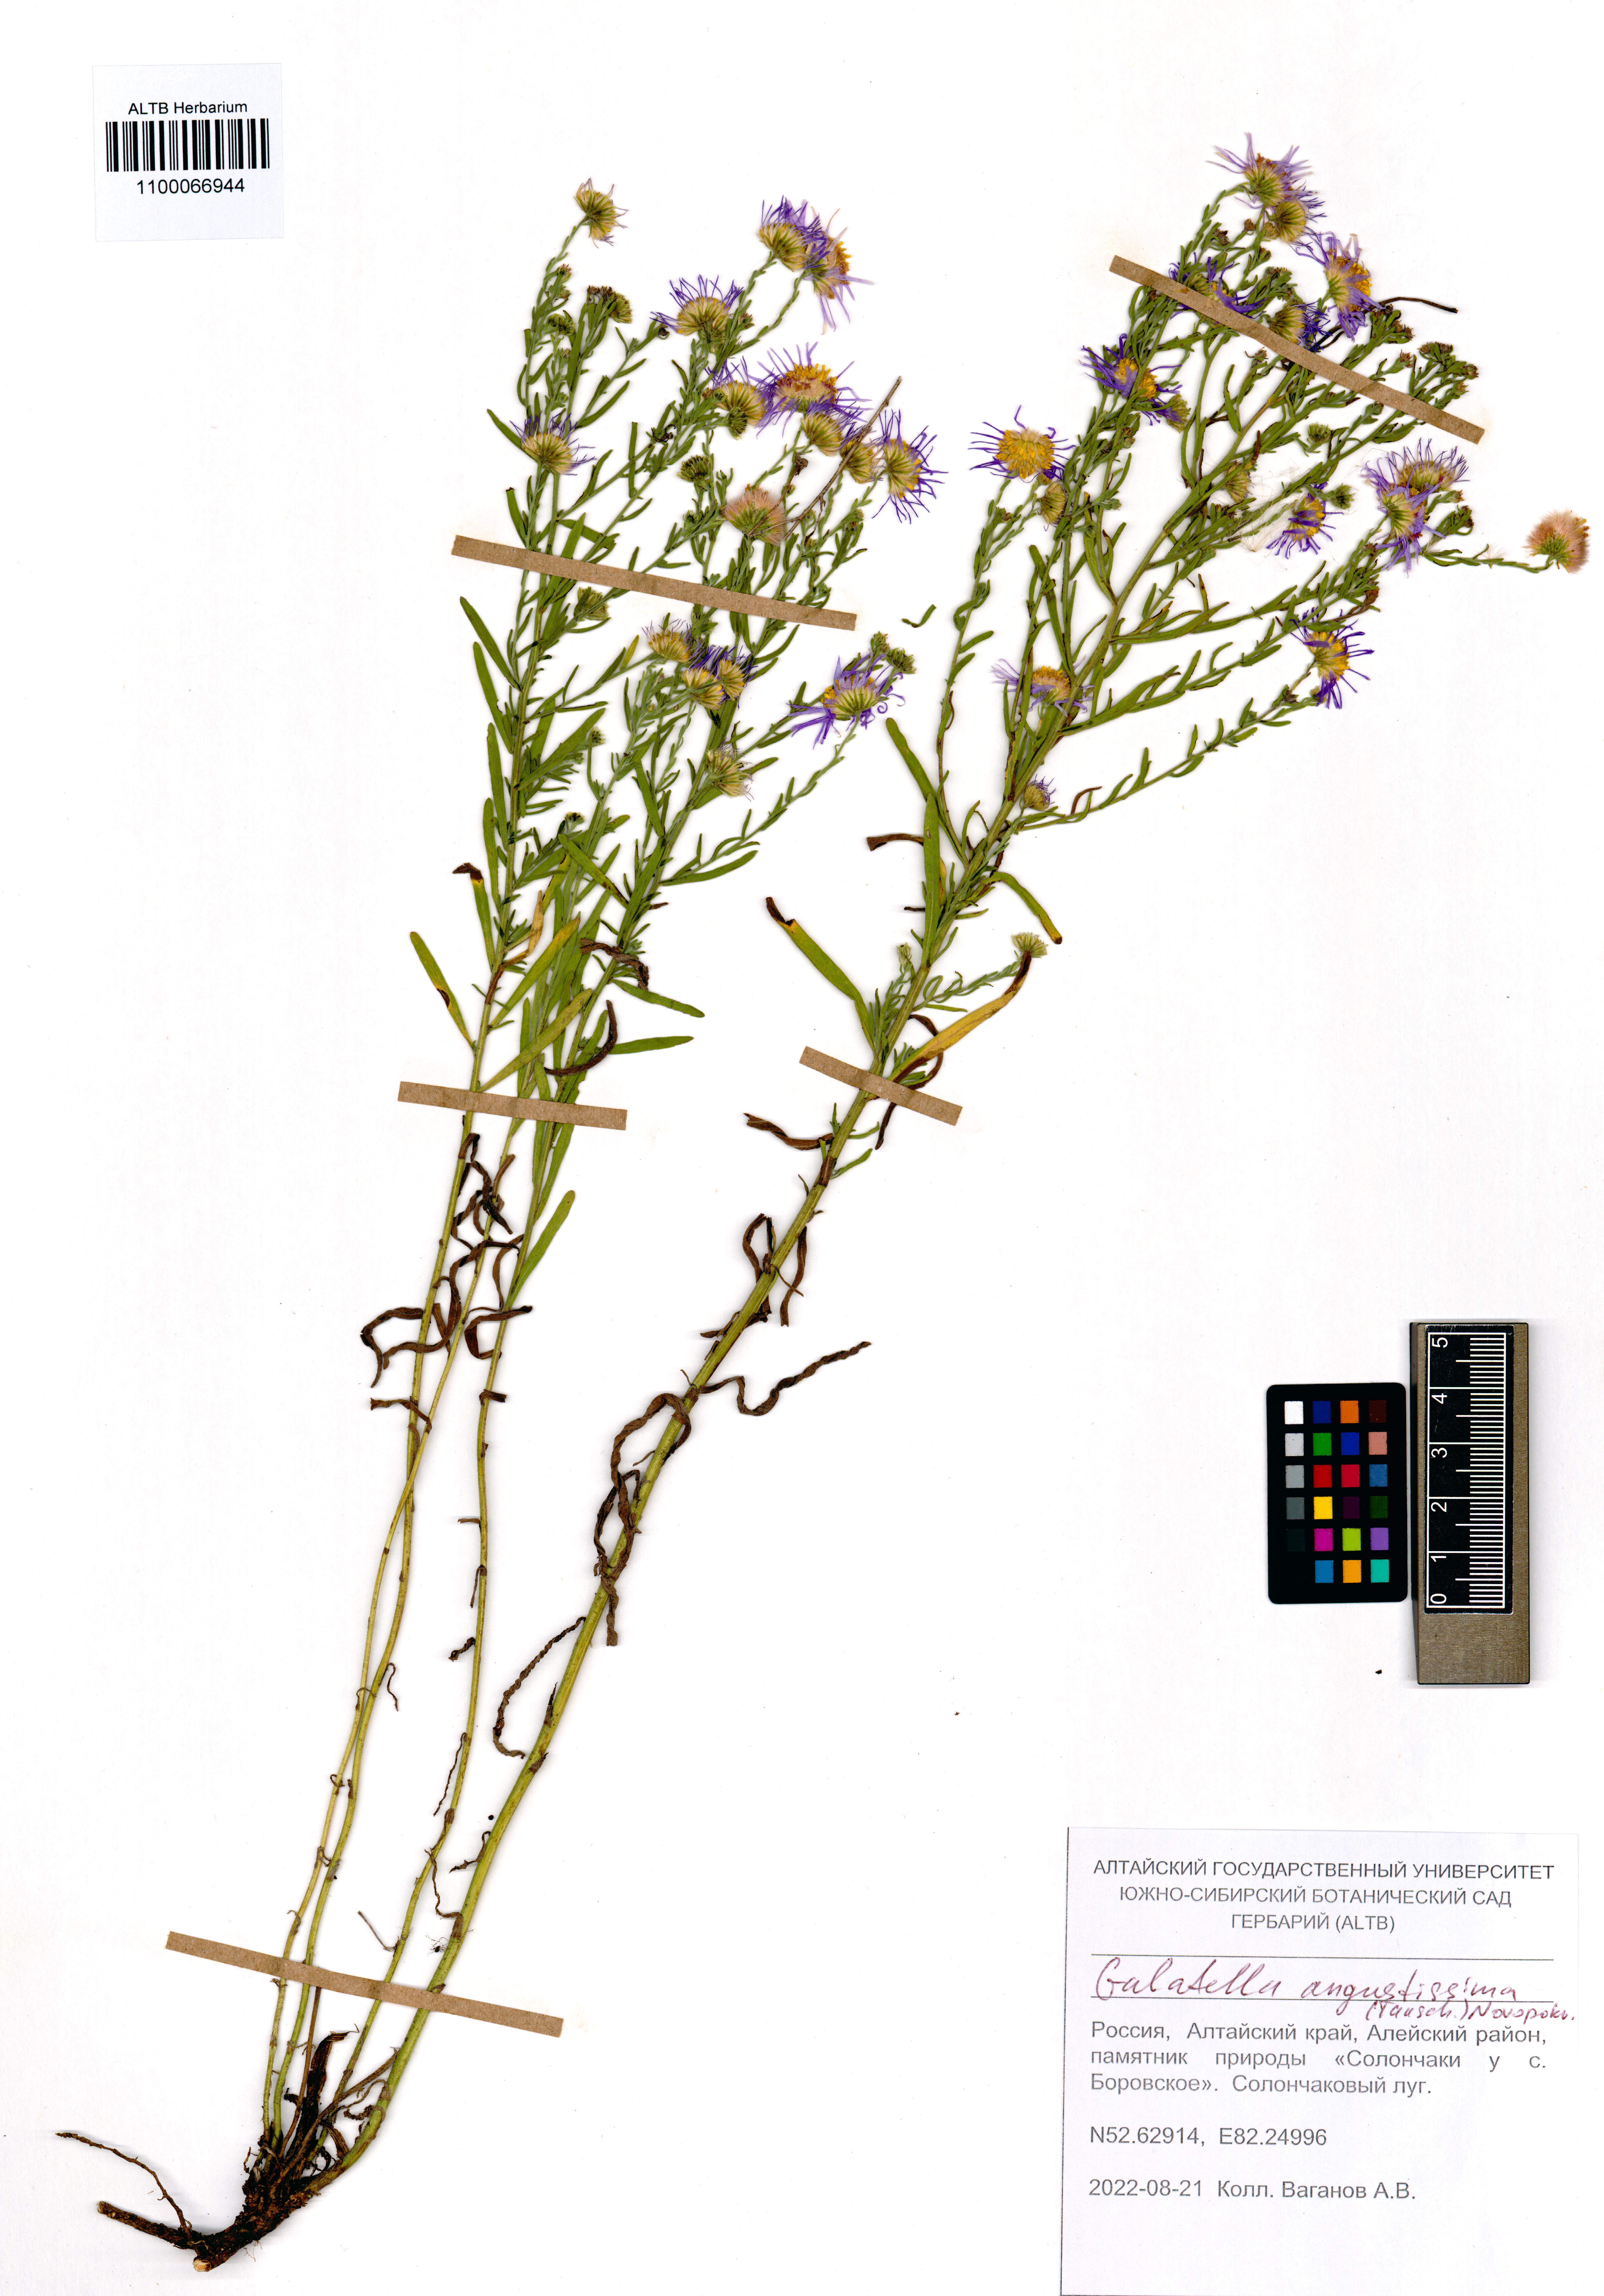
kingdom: Plantae
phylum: Tracheophyta
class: Magnoliopsida
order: Asterales
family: Asteraceae
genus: Galatella
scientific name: Galatella angustissima
